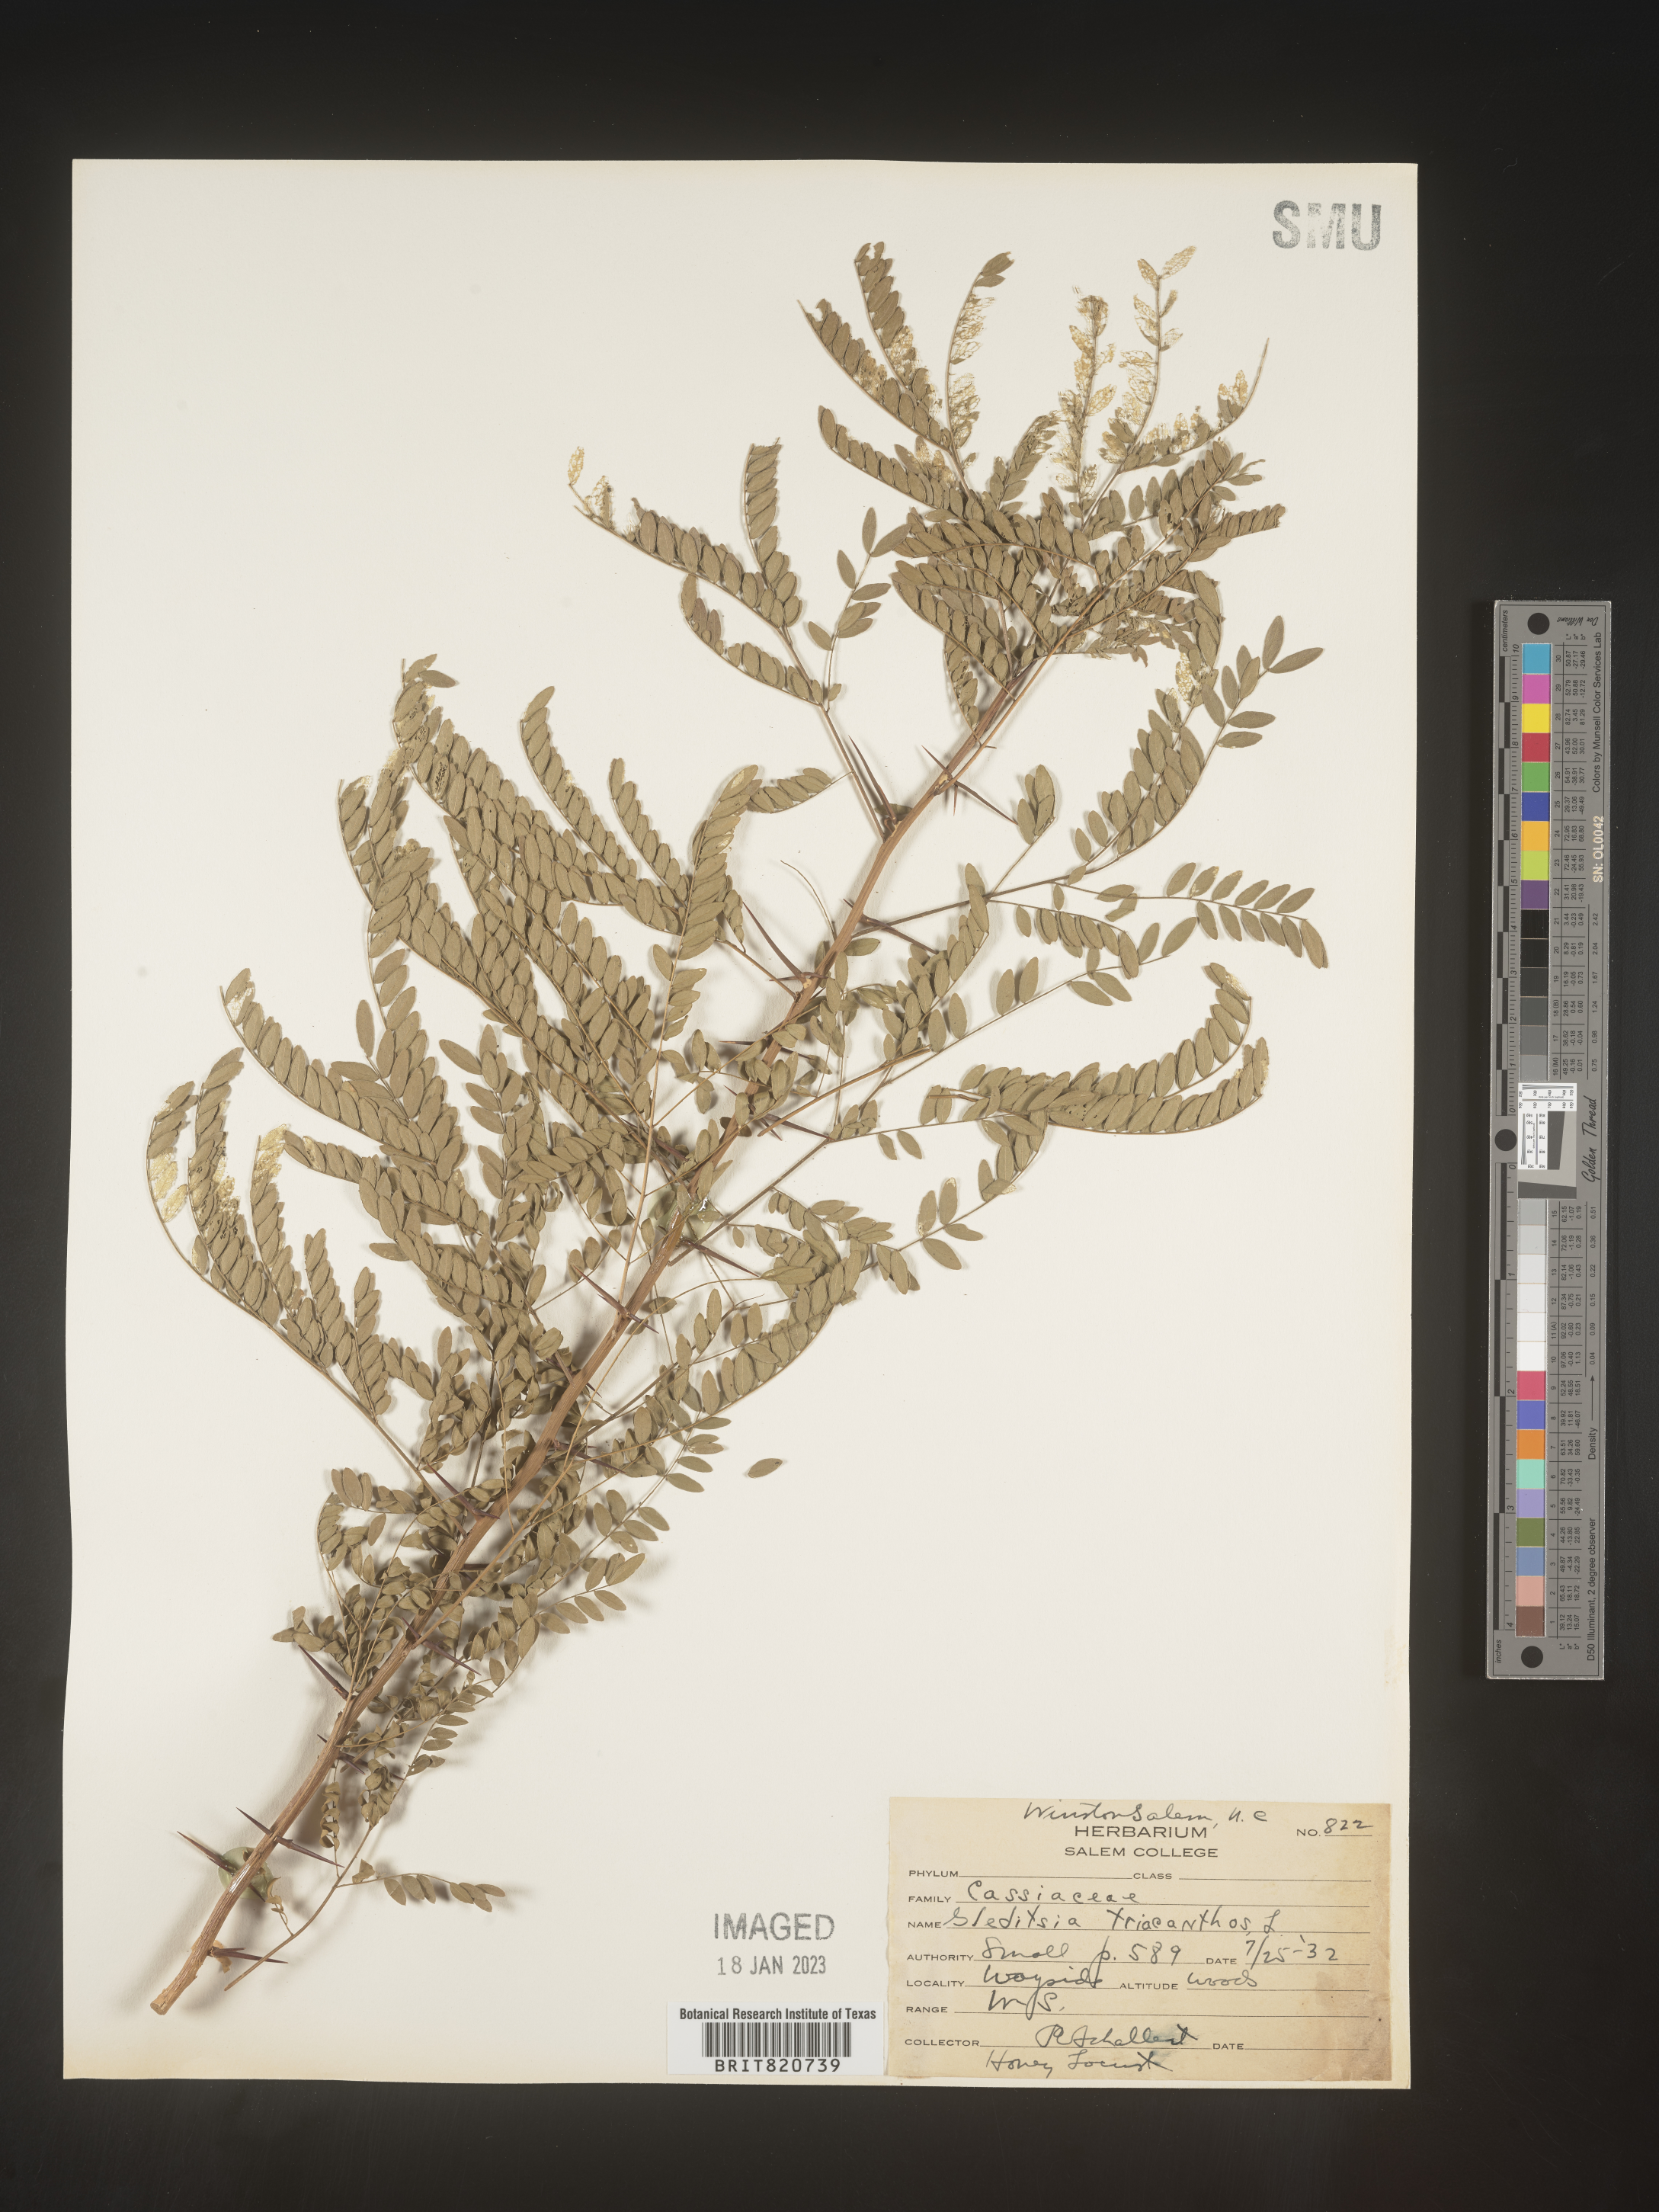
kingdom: Plantae
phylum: Tracheophyta
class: Magnoliopsida
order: Fabales
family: Fabaceae
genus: Gleditsia
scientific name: Gleditsia triacanthos
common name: Common honeylocust
